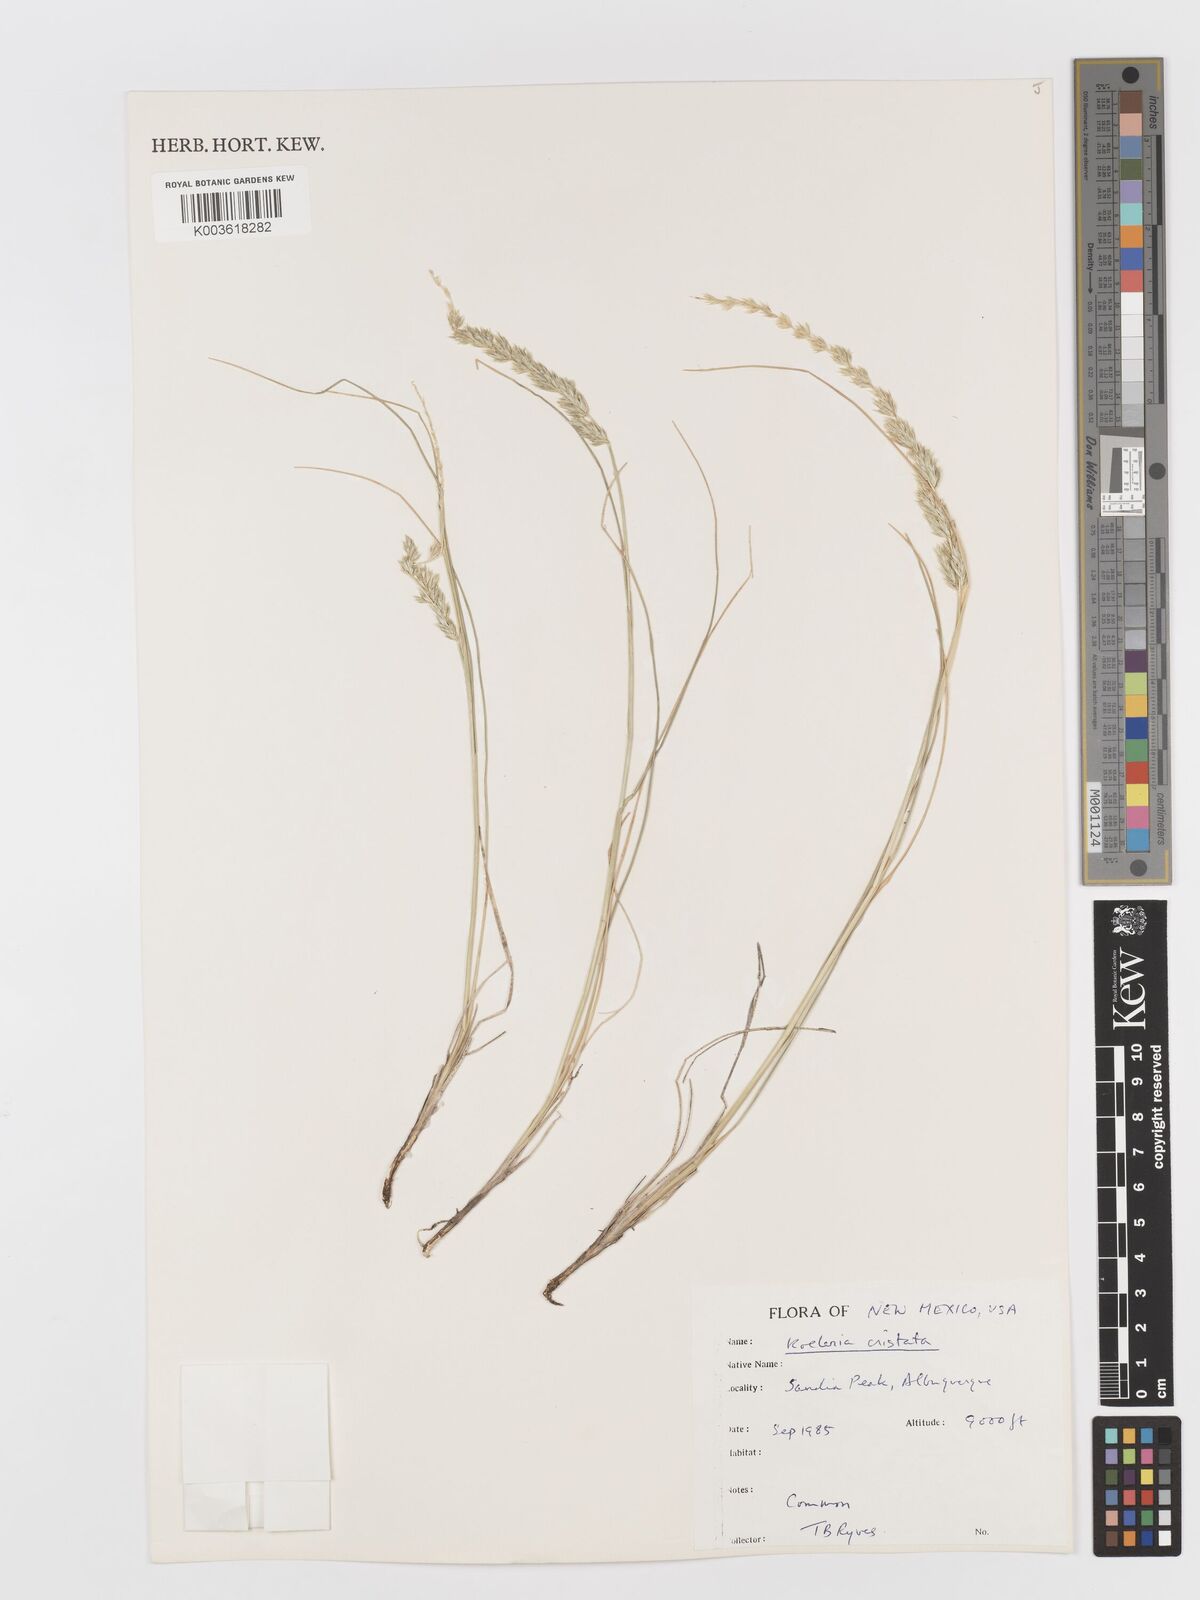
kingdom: Plantae
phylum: Tracheophyta
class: Liliopsida
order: Poales
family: Poaceae
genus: Koeleria
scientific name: Koeleria macrantha
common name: Crested hair-grass
